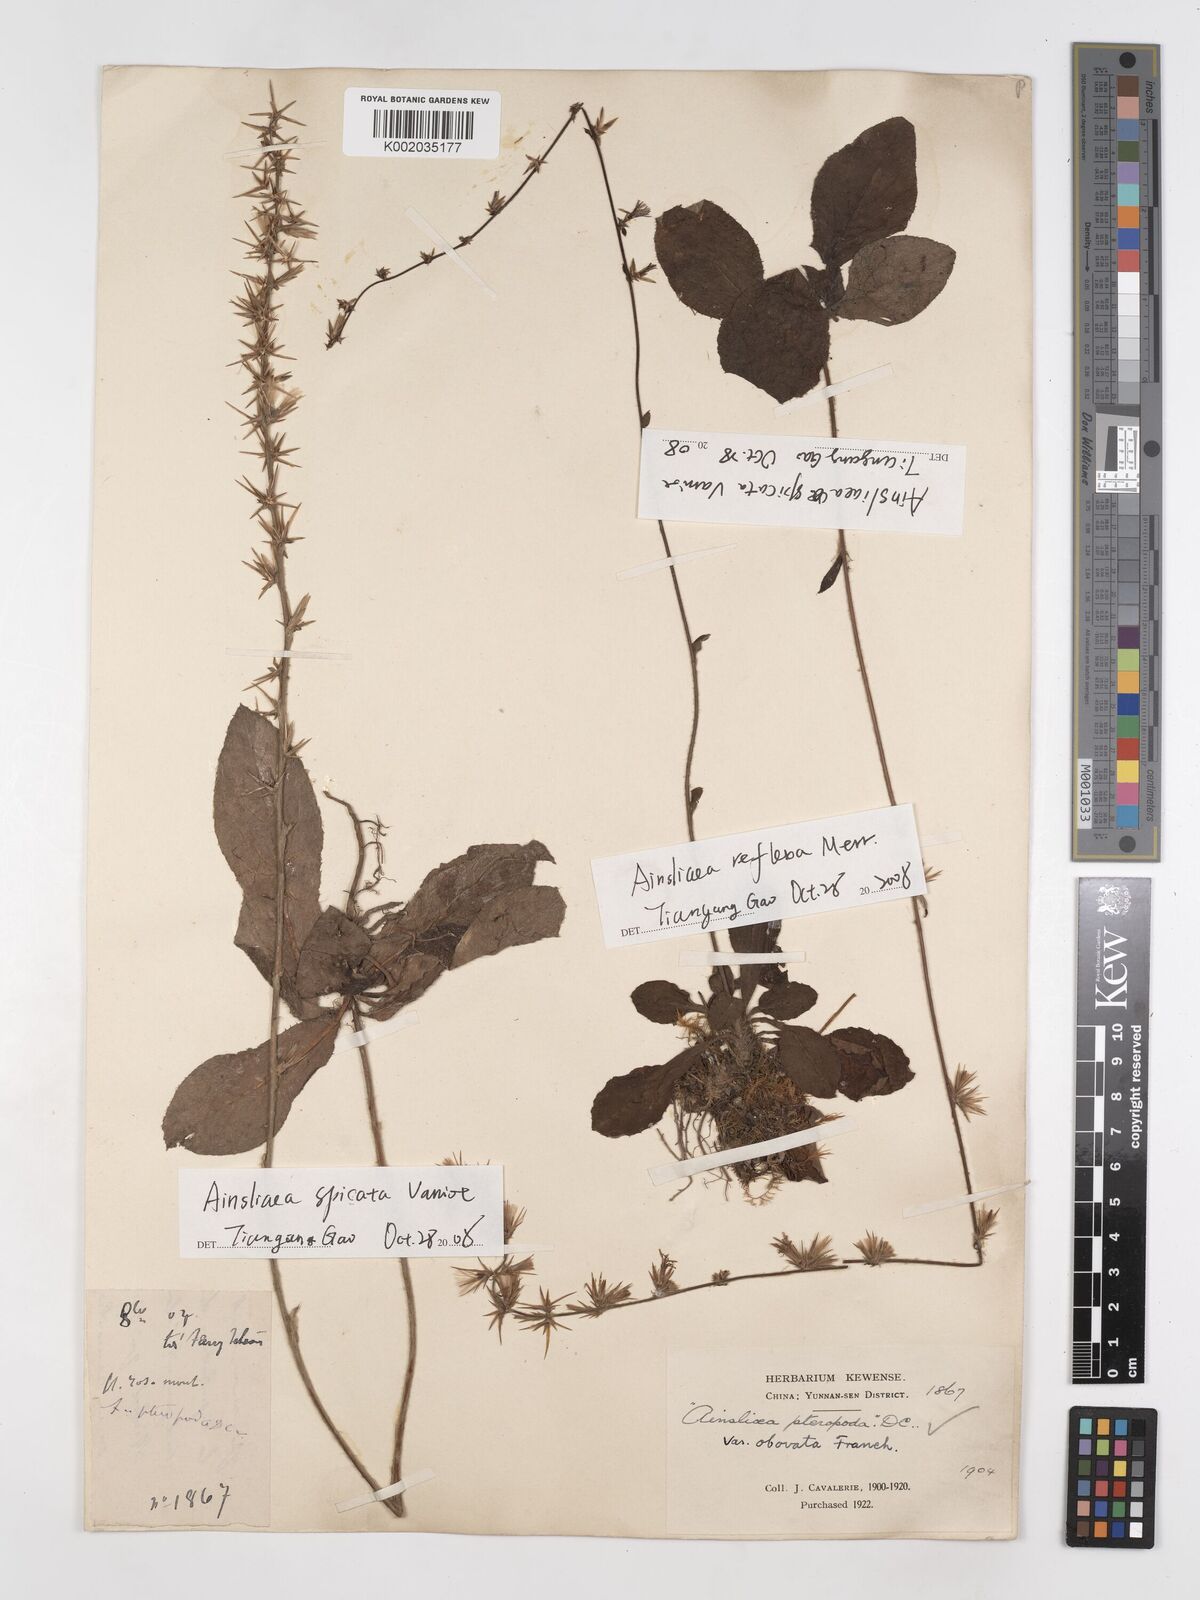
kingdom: Plantae
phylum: Tracheophyta
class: Magnoliopsida
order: Asterales
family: Asteraceae
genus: Ainsliaea
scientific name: Ainsliaea spicata
